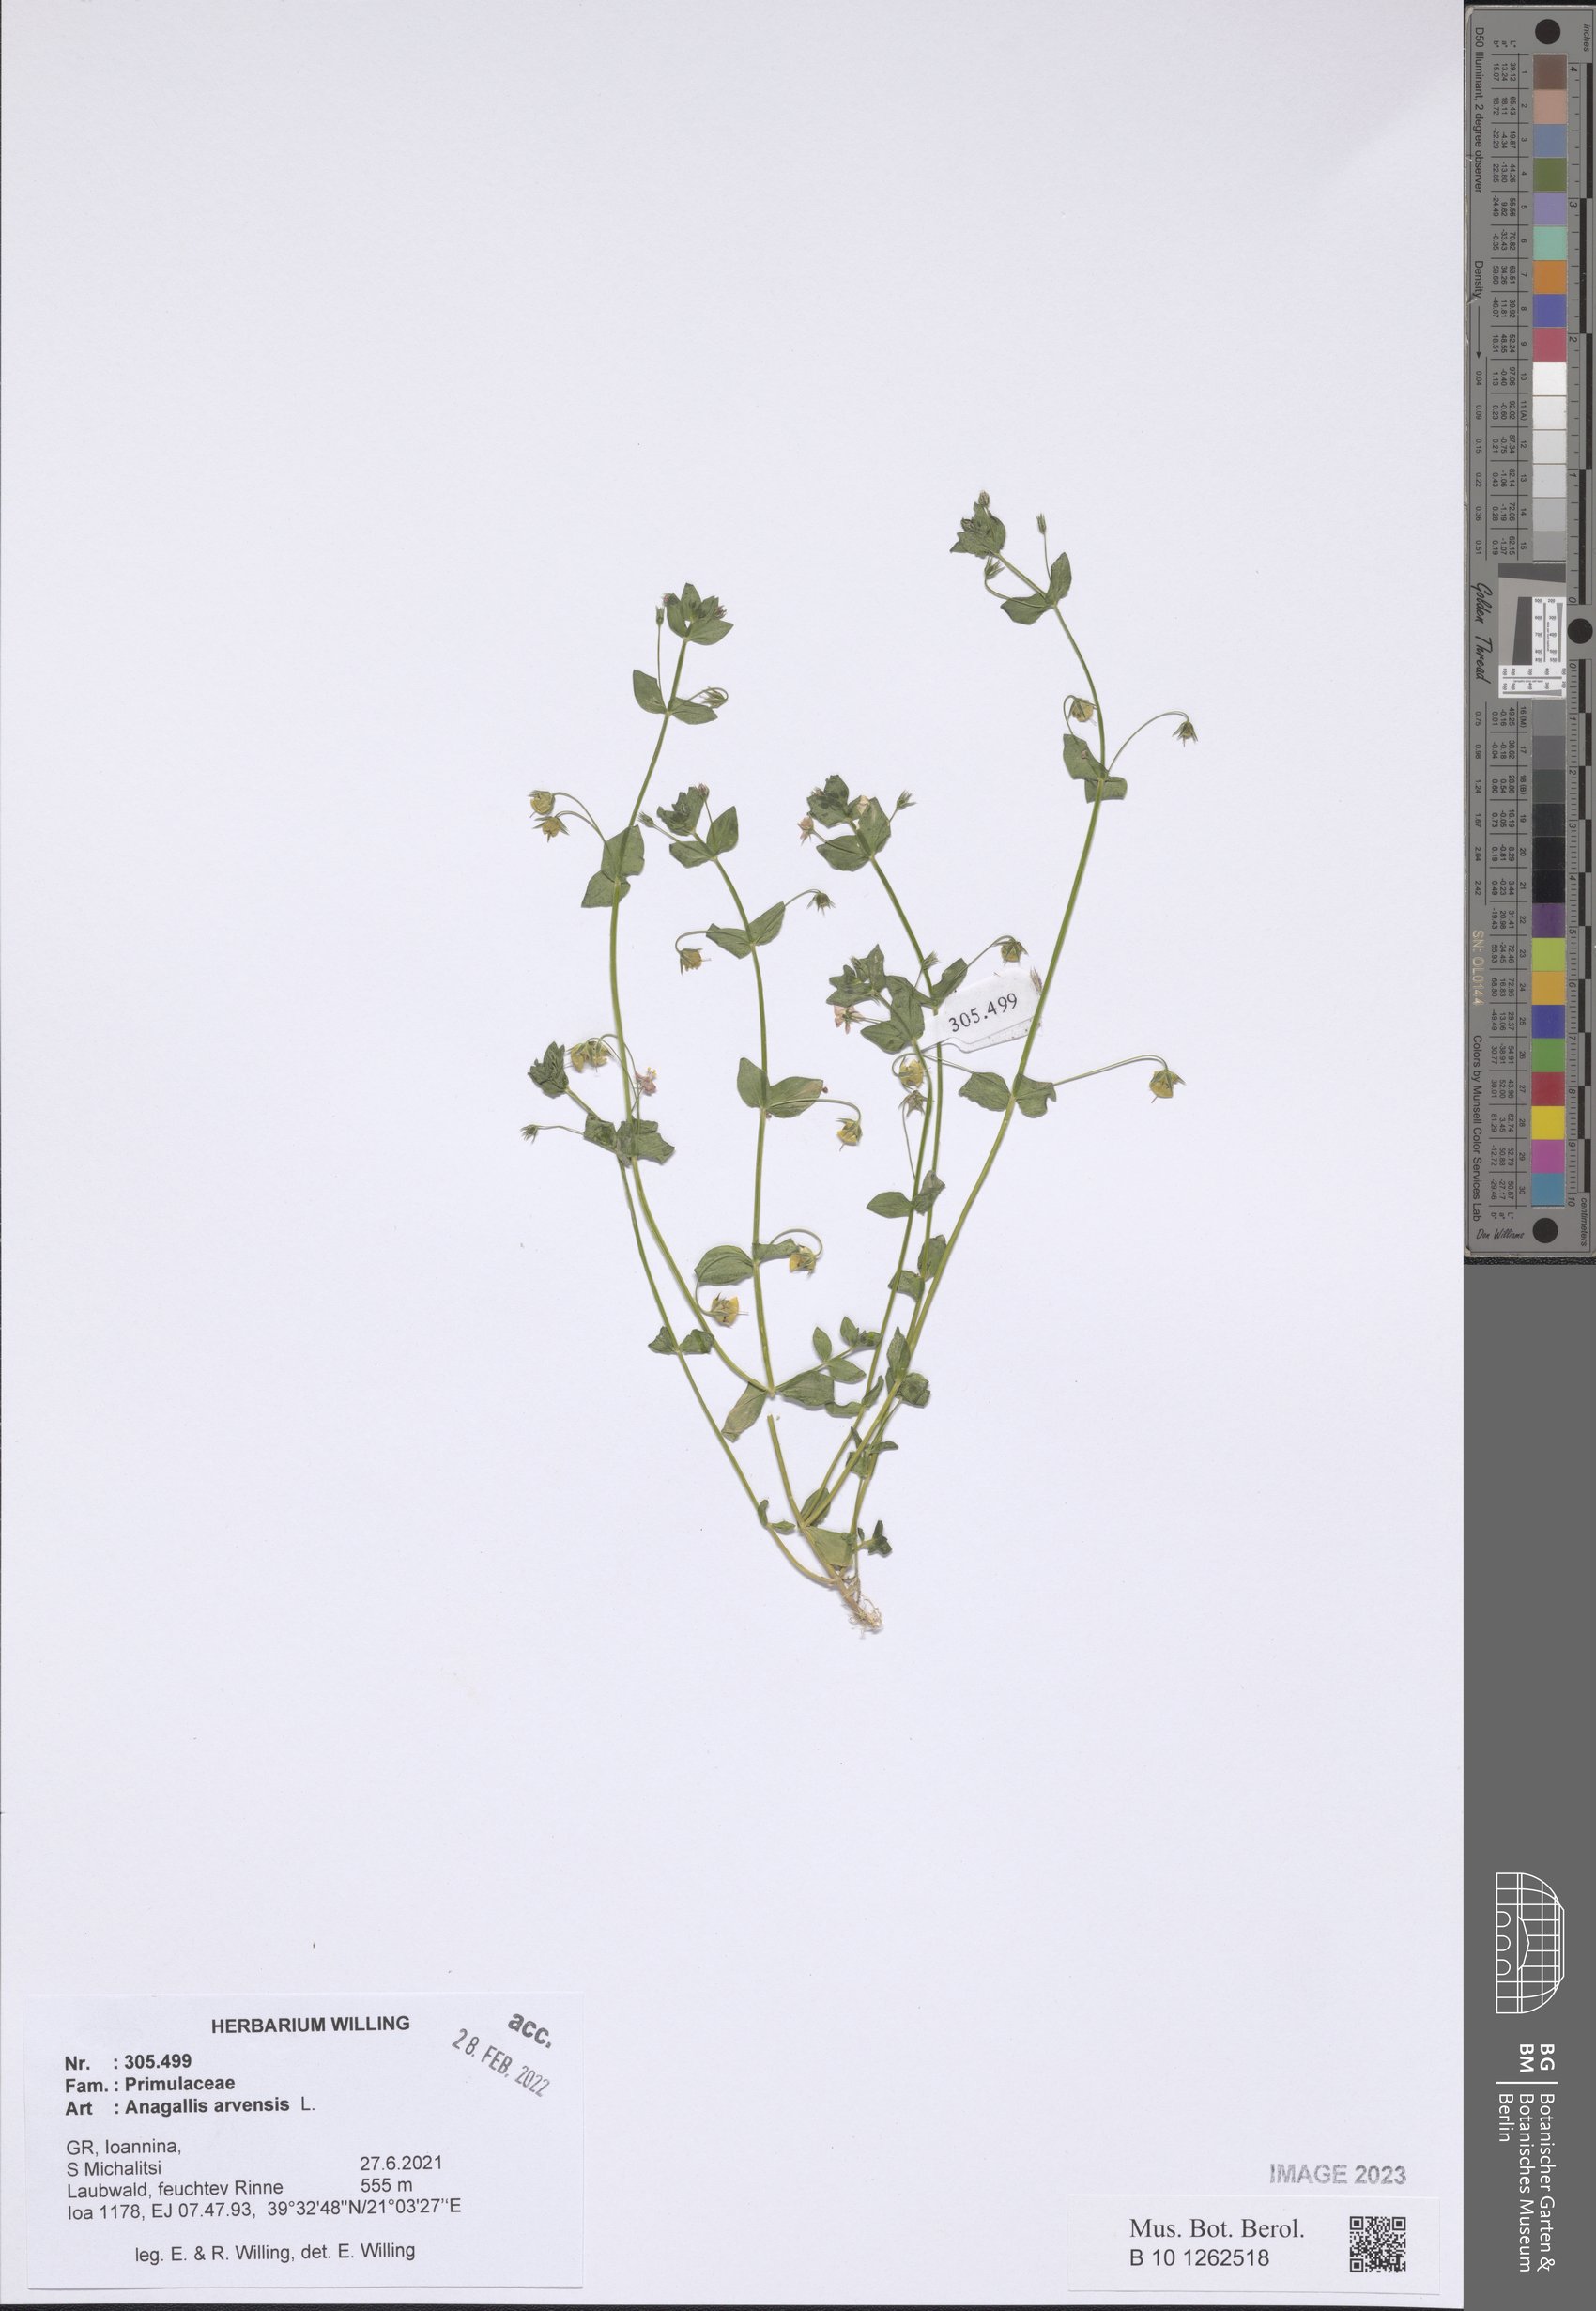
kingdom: Plantae
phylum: Tracheophyta
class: Magnoliopsida
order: Ericales
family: Primulaceae
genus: Lysimachia
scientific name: Lysimachia arvensis
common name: Scarlet pimpernel
